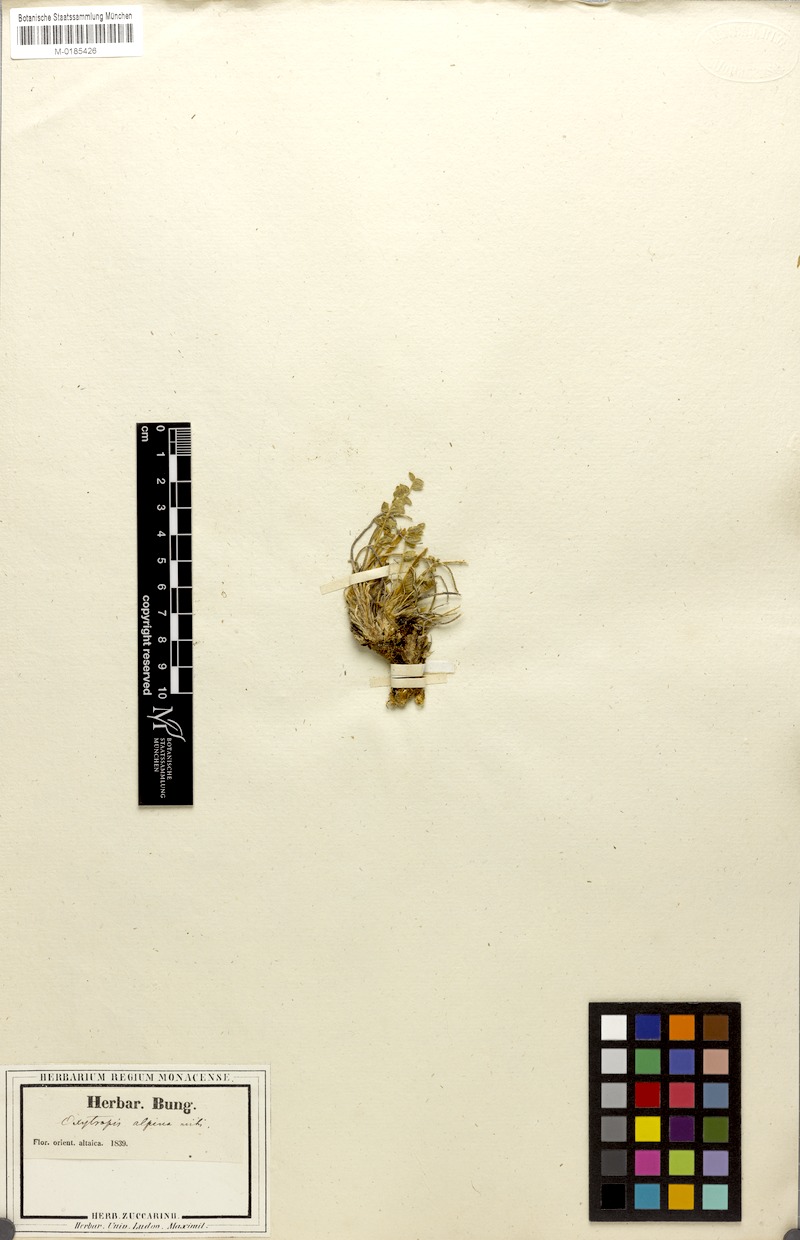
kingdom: Plantae
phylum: Tracheophyta
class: Magnoliopsida
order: Fabales
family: Fabaceae
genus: Oxytropis
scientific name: Oxytropis uralensis
